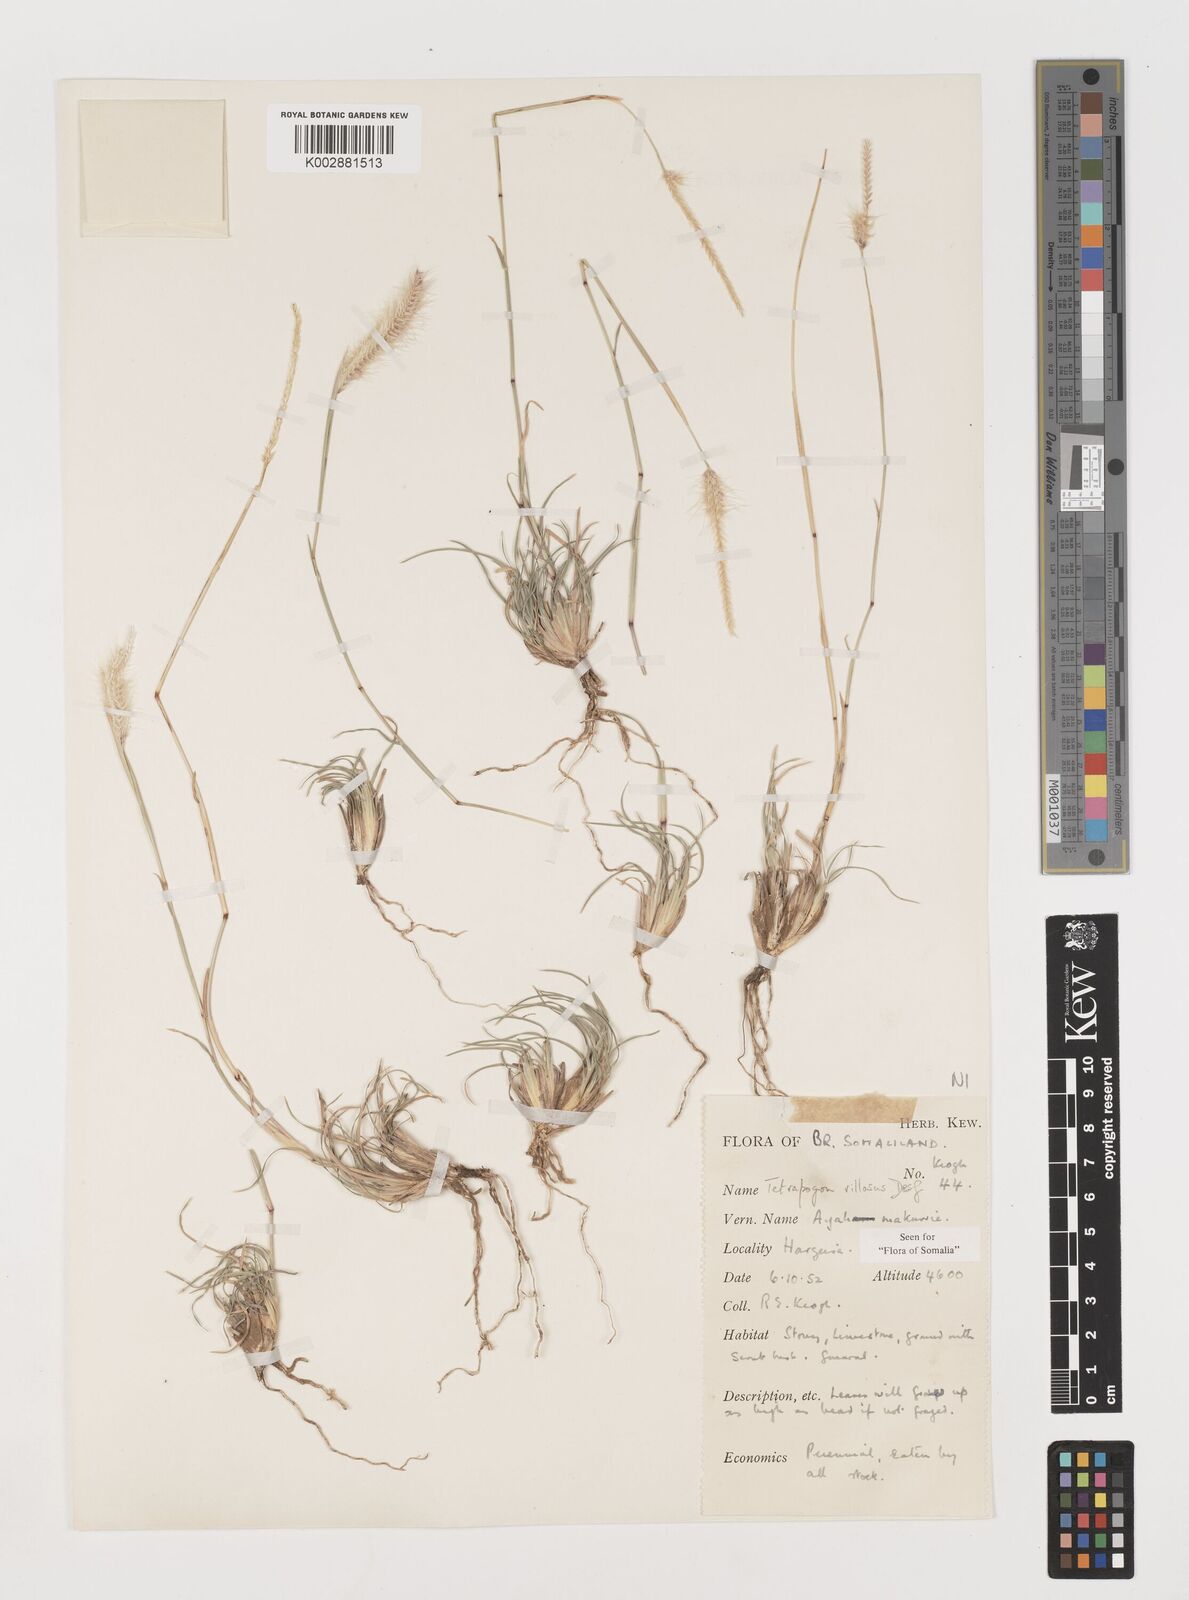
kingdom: Plantae
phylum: Tracheophyta
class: Liliopsida
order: Poales
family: Poaceae
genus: Tetrapogon
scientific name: Tetrapogon villosus
